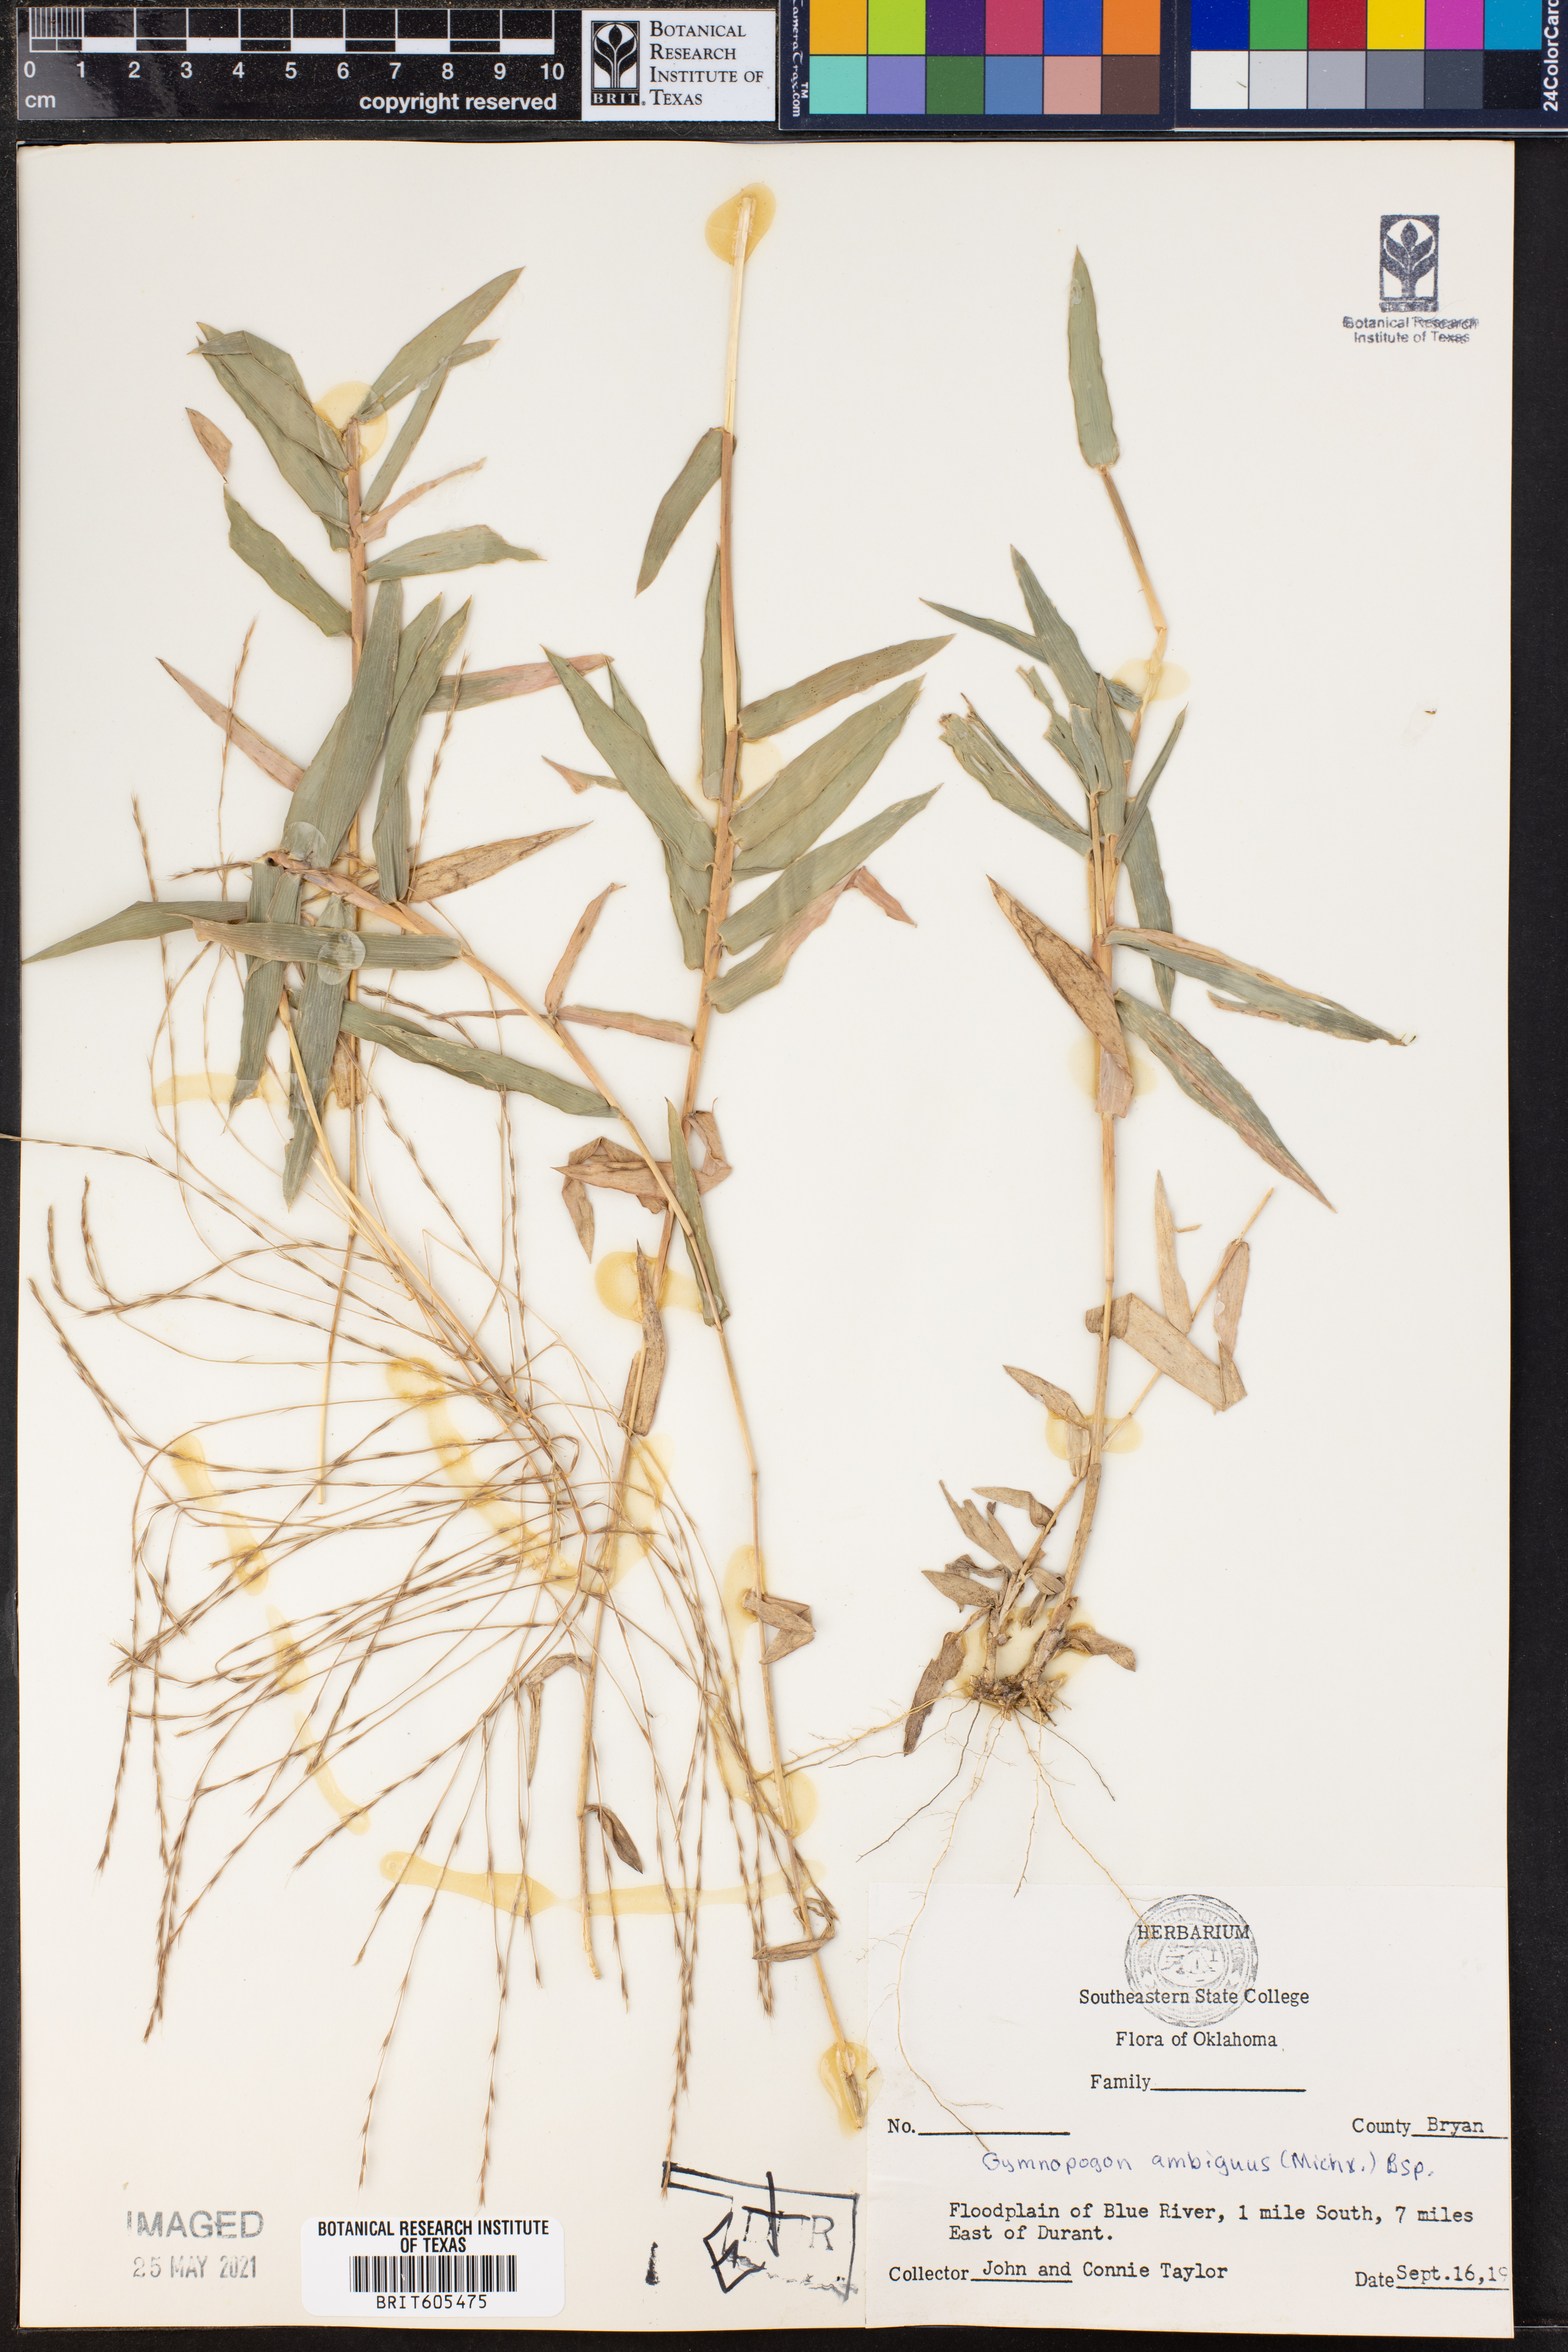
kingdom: Plantae
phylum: Tracheophyta
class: Liliopsida
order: Poales
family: Poaceae
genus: Gymnopogon
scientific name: Gymnopogon ambiguus
